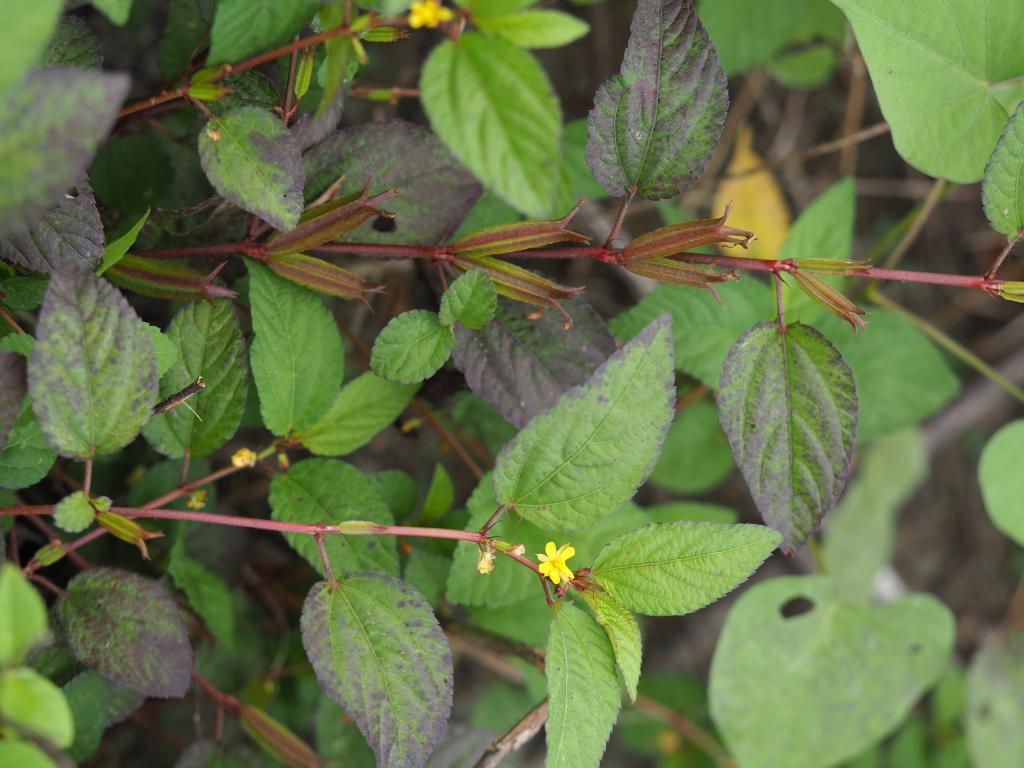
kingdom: Plantae
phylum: Tracheophyta
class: Magnoliopsida
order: Malvales
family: Malvaceae
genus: Corchorus
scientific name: Corchorus aestuans
